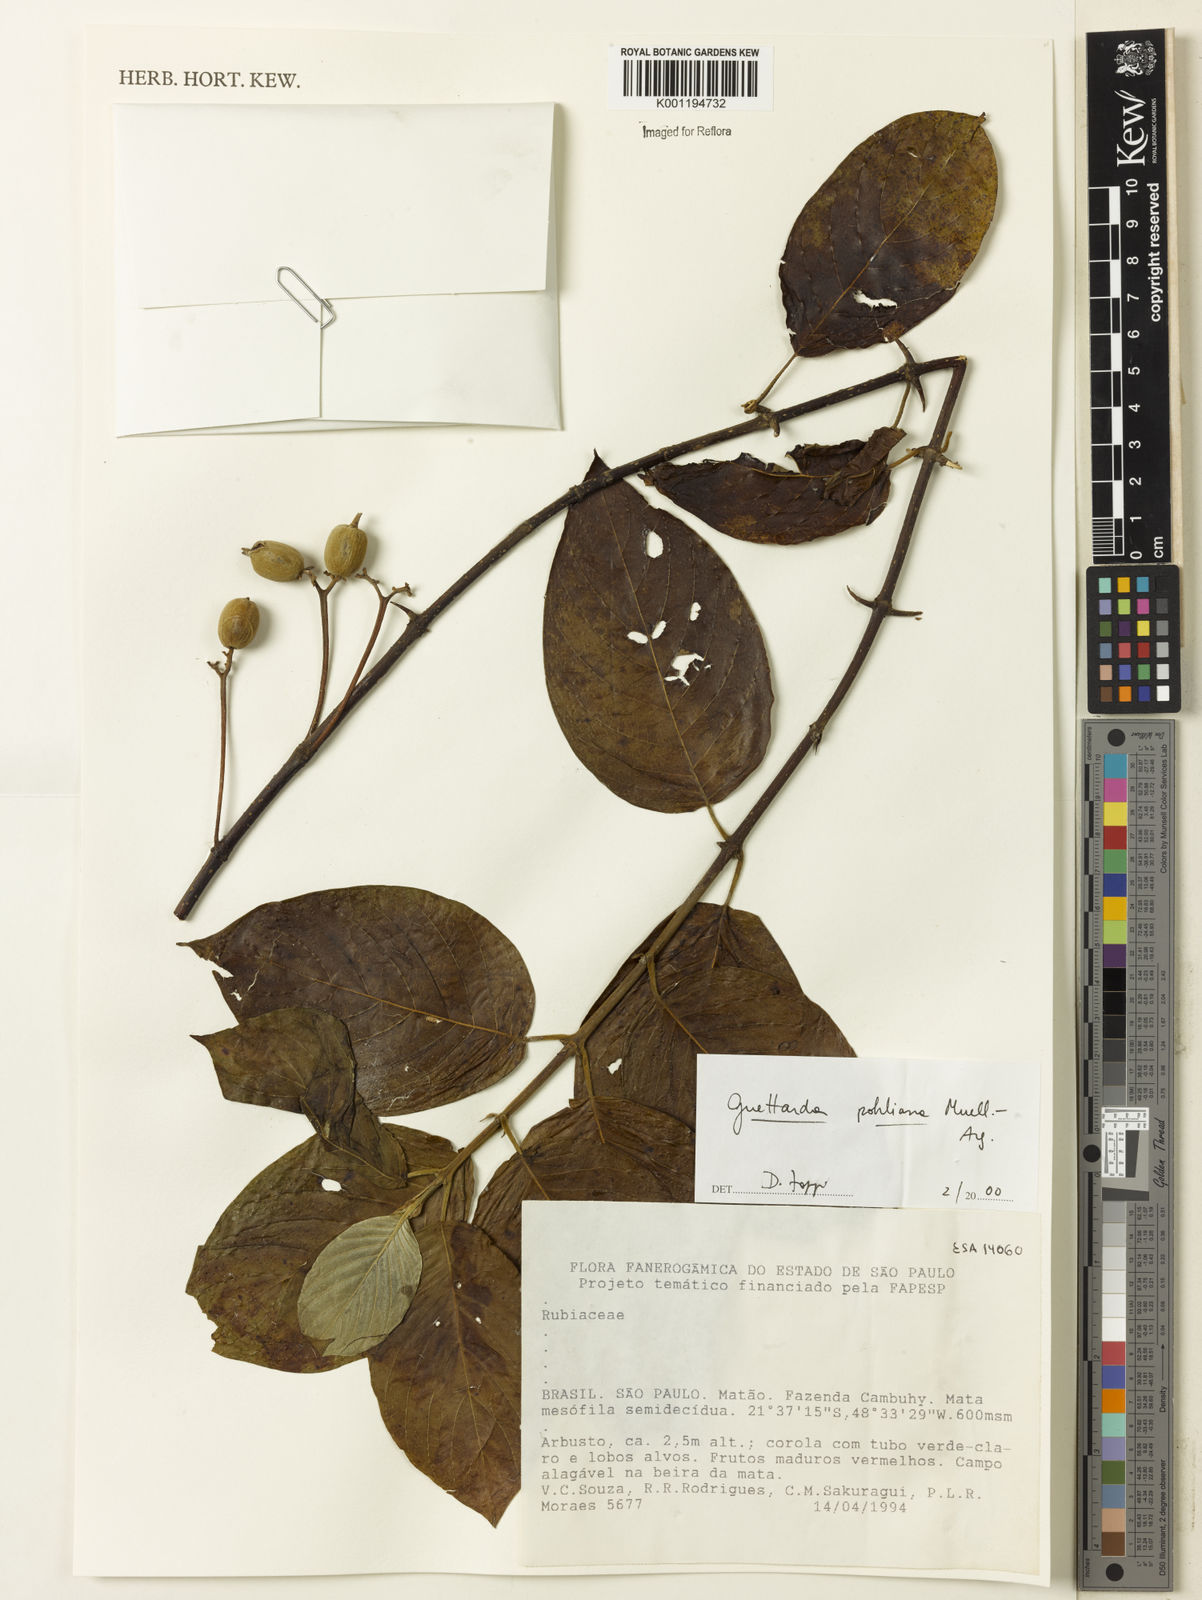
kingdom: Plantae
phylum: Tracheophyta
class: Magnoliopsida
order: Gentianales
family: Rubiaceae
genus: Guettarda
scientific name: Guettarda mattogrossensis
